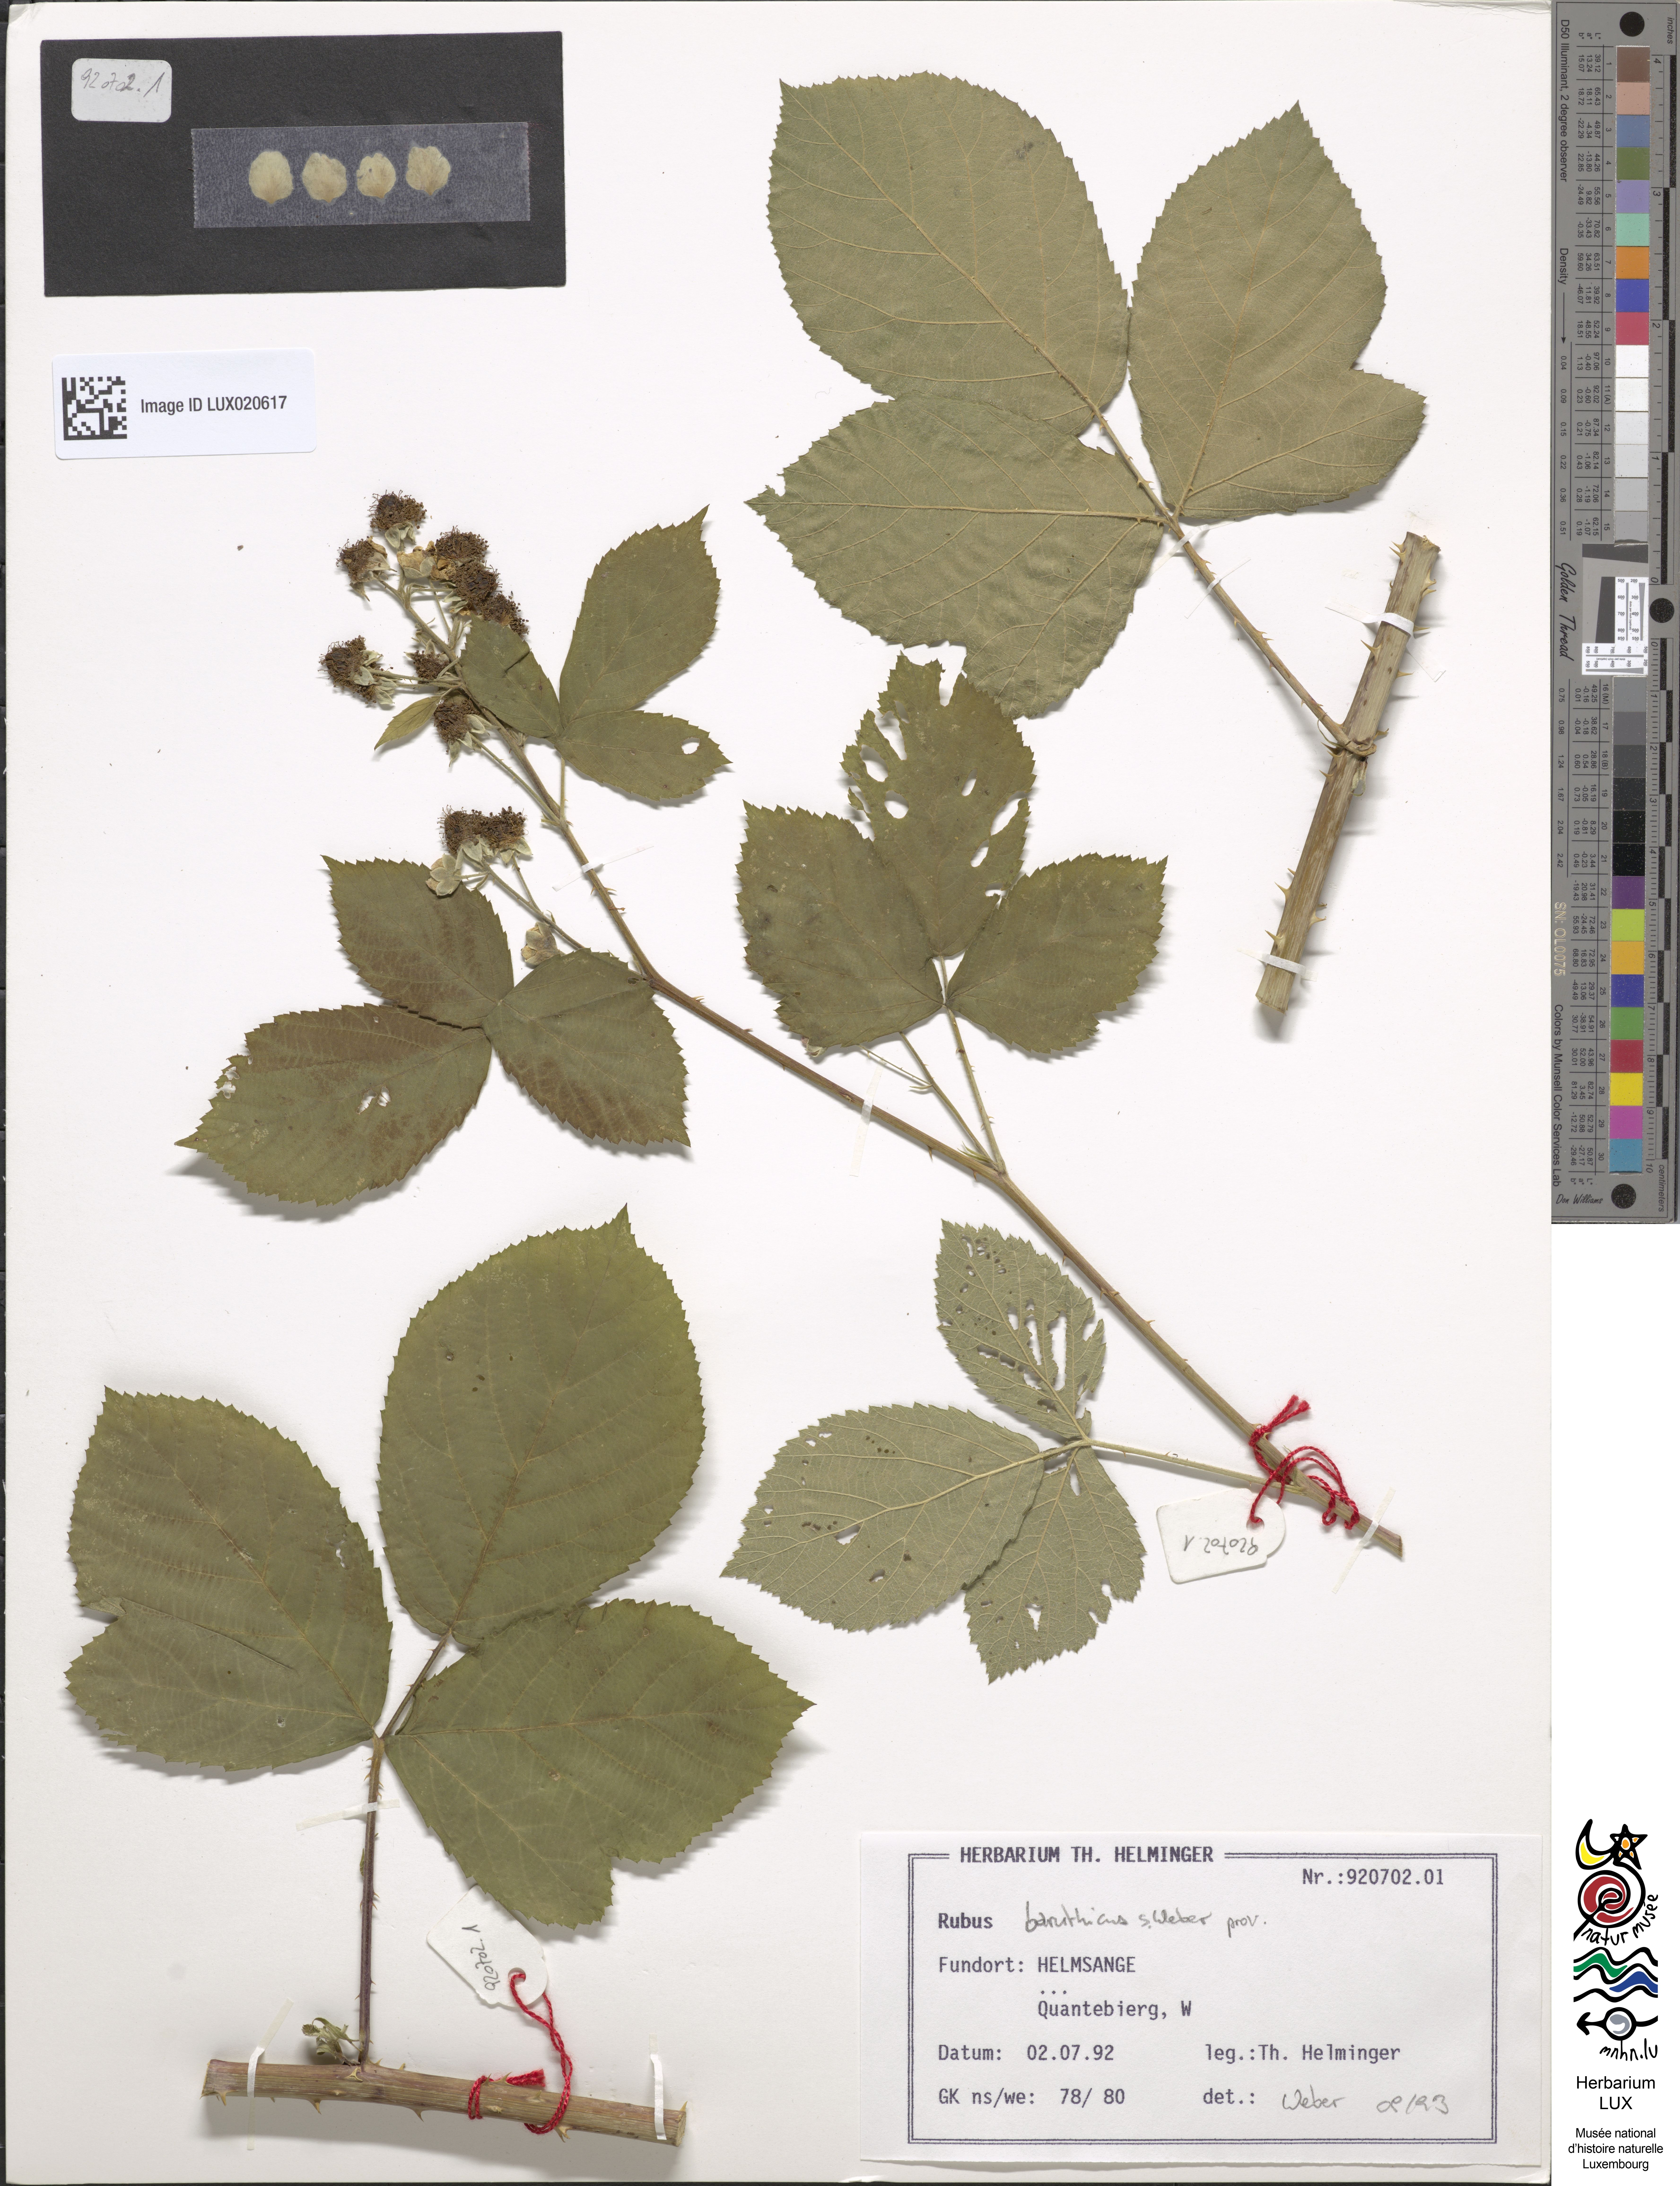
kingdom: Plantae
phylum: Tracheophyta
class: Magnoliopsida
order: Rosales
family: Rosaceae
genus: Rubus
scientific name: Rubus macrostemonides
